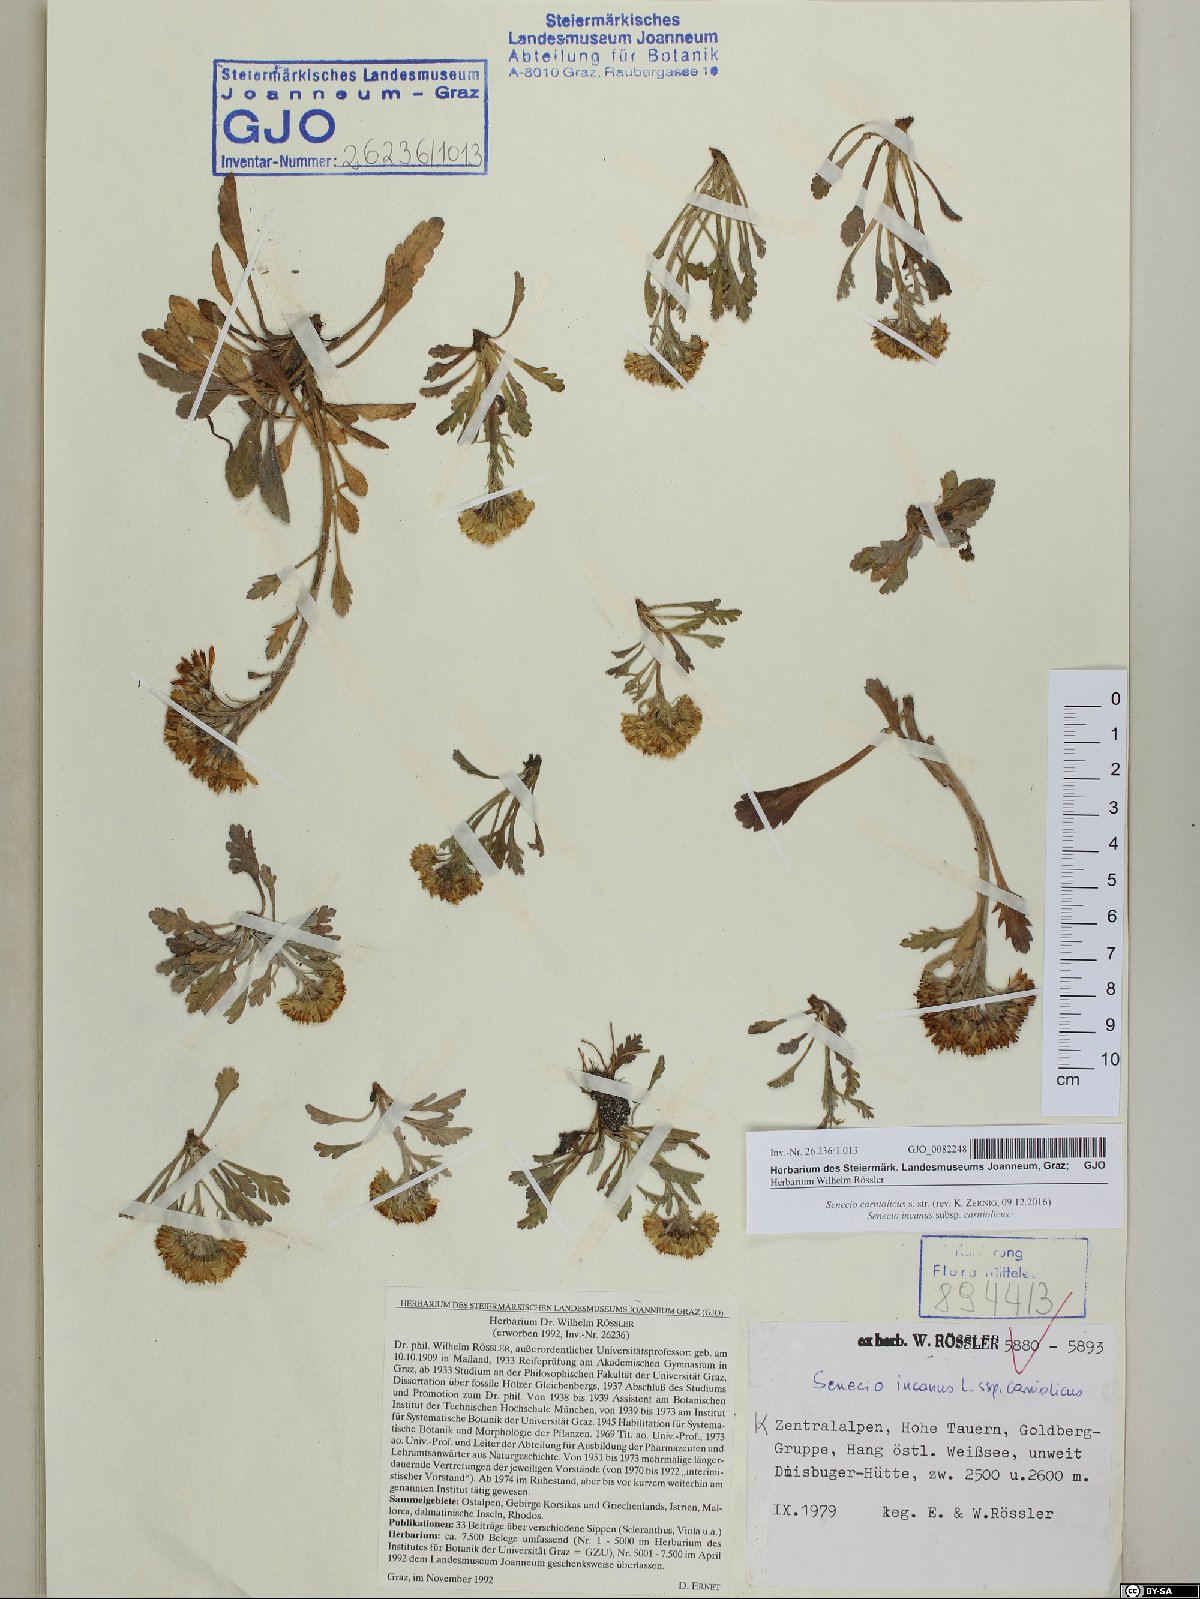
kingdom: Plantae
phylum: Tracheophyta
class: Magnoliopsida
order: Asterales
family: Asteraceae
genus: Jacobaea
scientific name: Jacobaea carniolica
